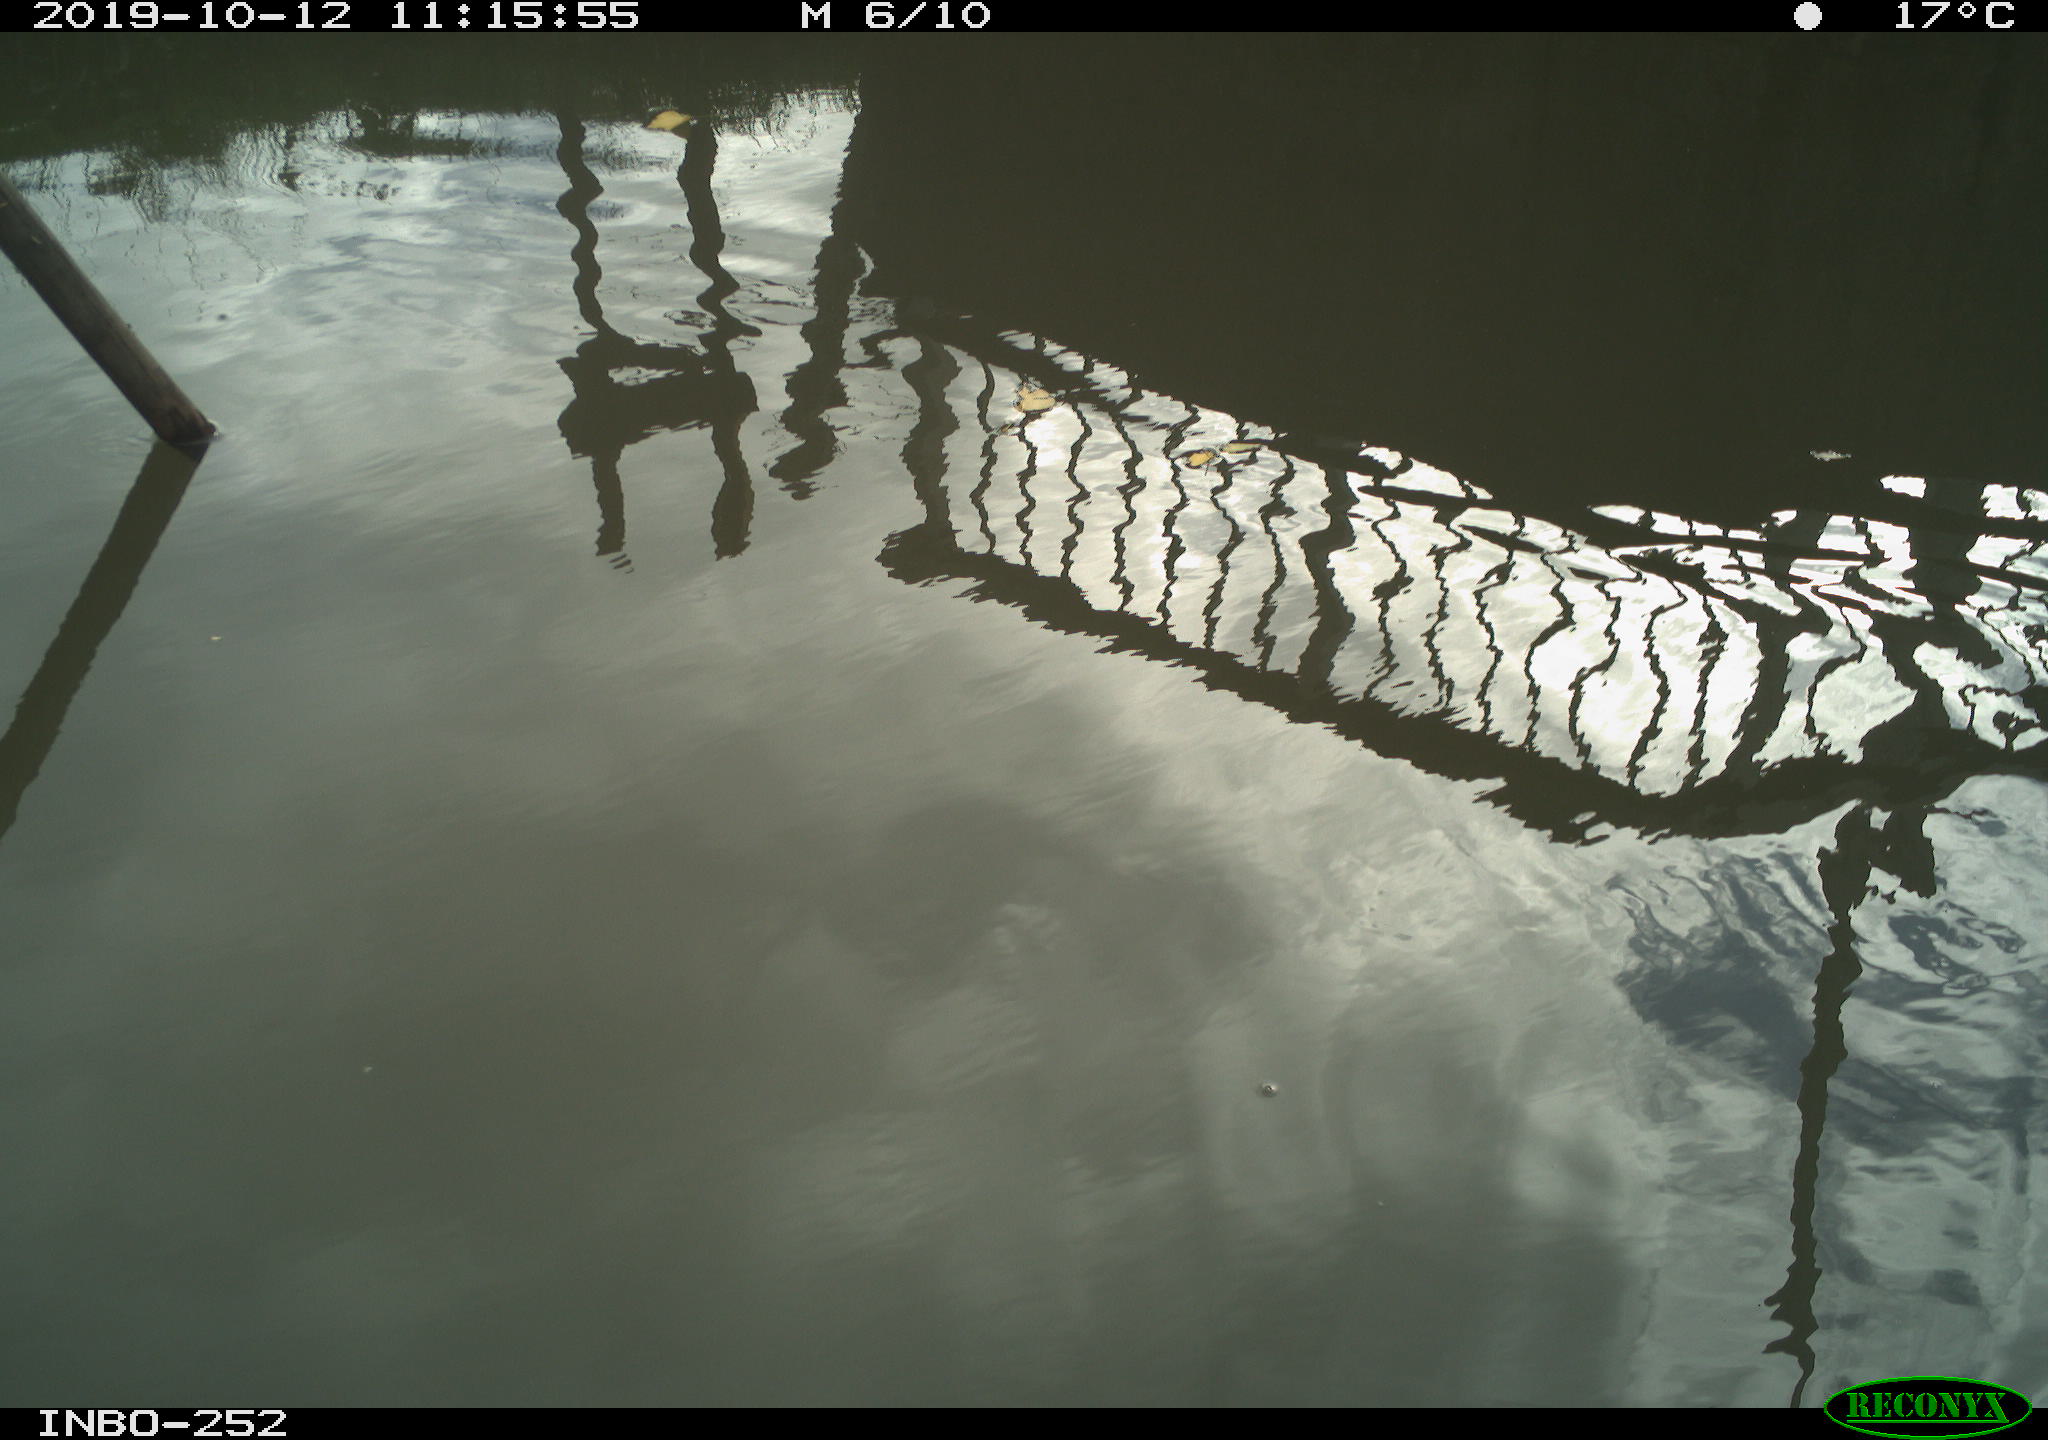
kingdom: Animalia
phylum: Chordata
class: Aves
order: Gruiformes
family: Rallidae
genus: Gallinula
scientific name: Gallinula chloropus
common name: Common moorhen
